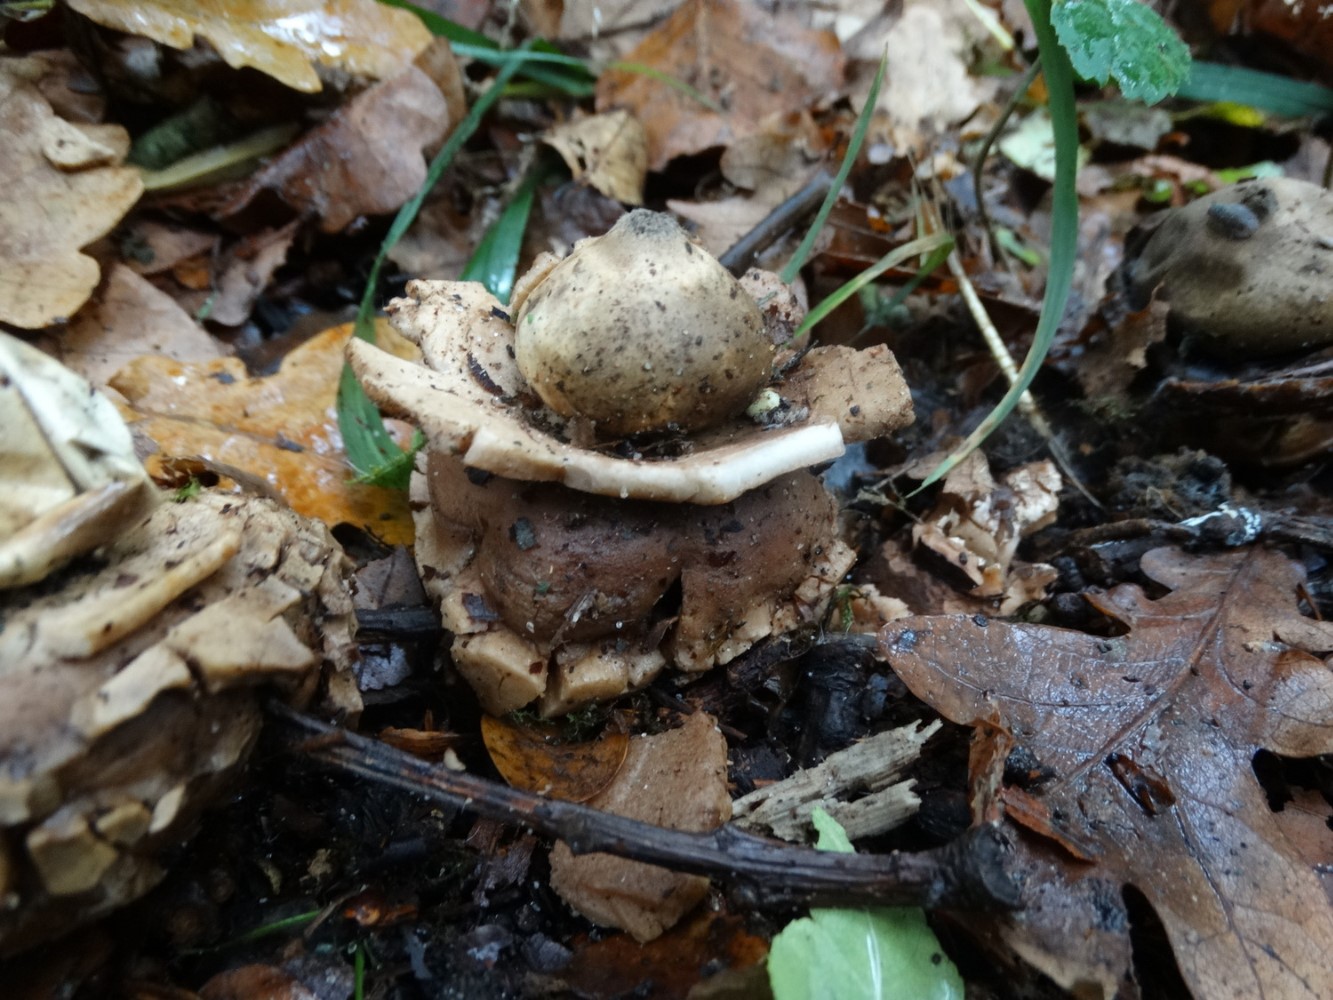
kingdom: Fungi
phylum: Basidiomycota
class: Agaricomycetes
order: Geastrales
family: Geastraceae
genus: Geastrum
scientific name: Geastrum michelianum
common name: kødet stjernebold
